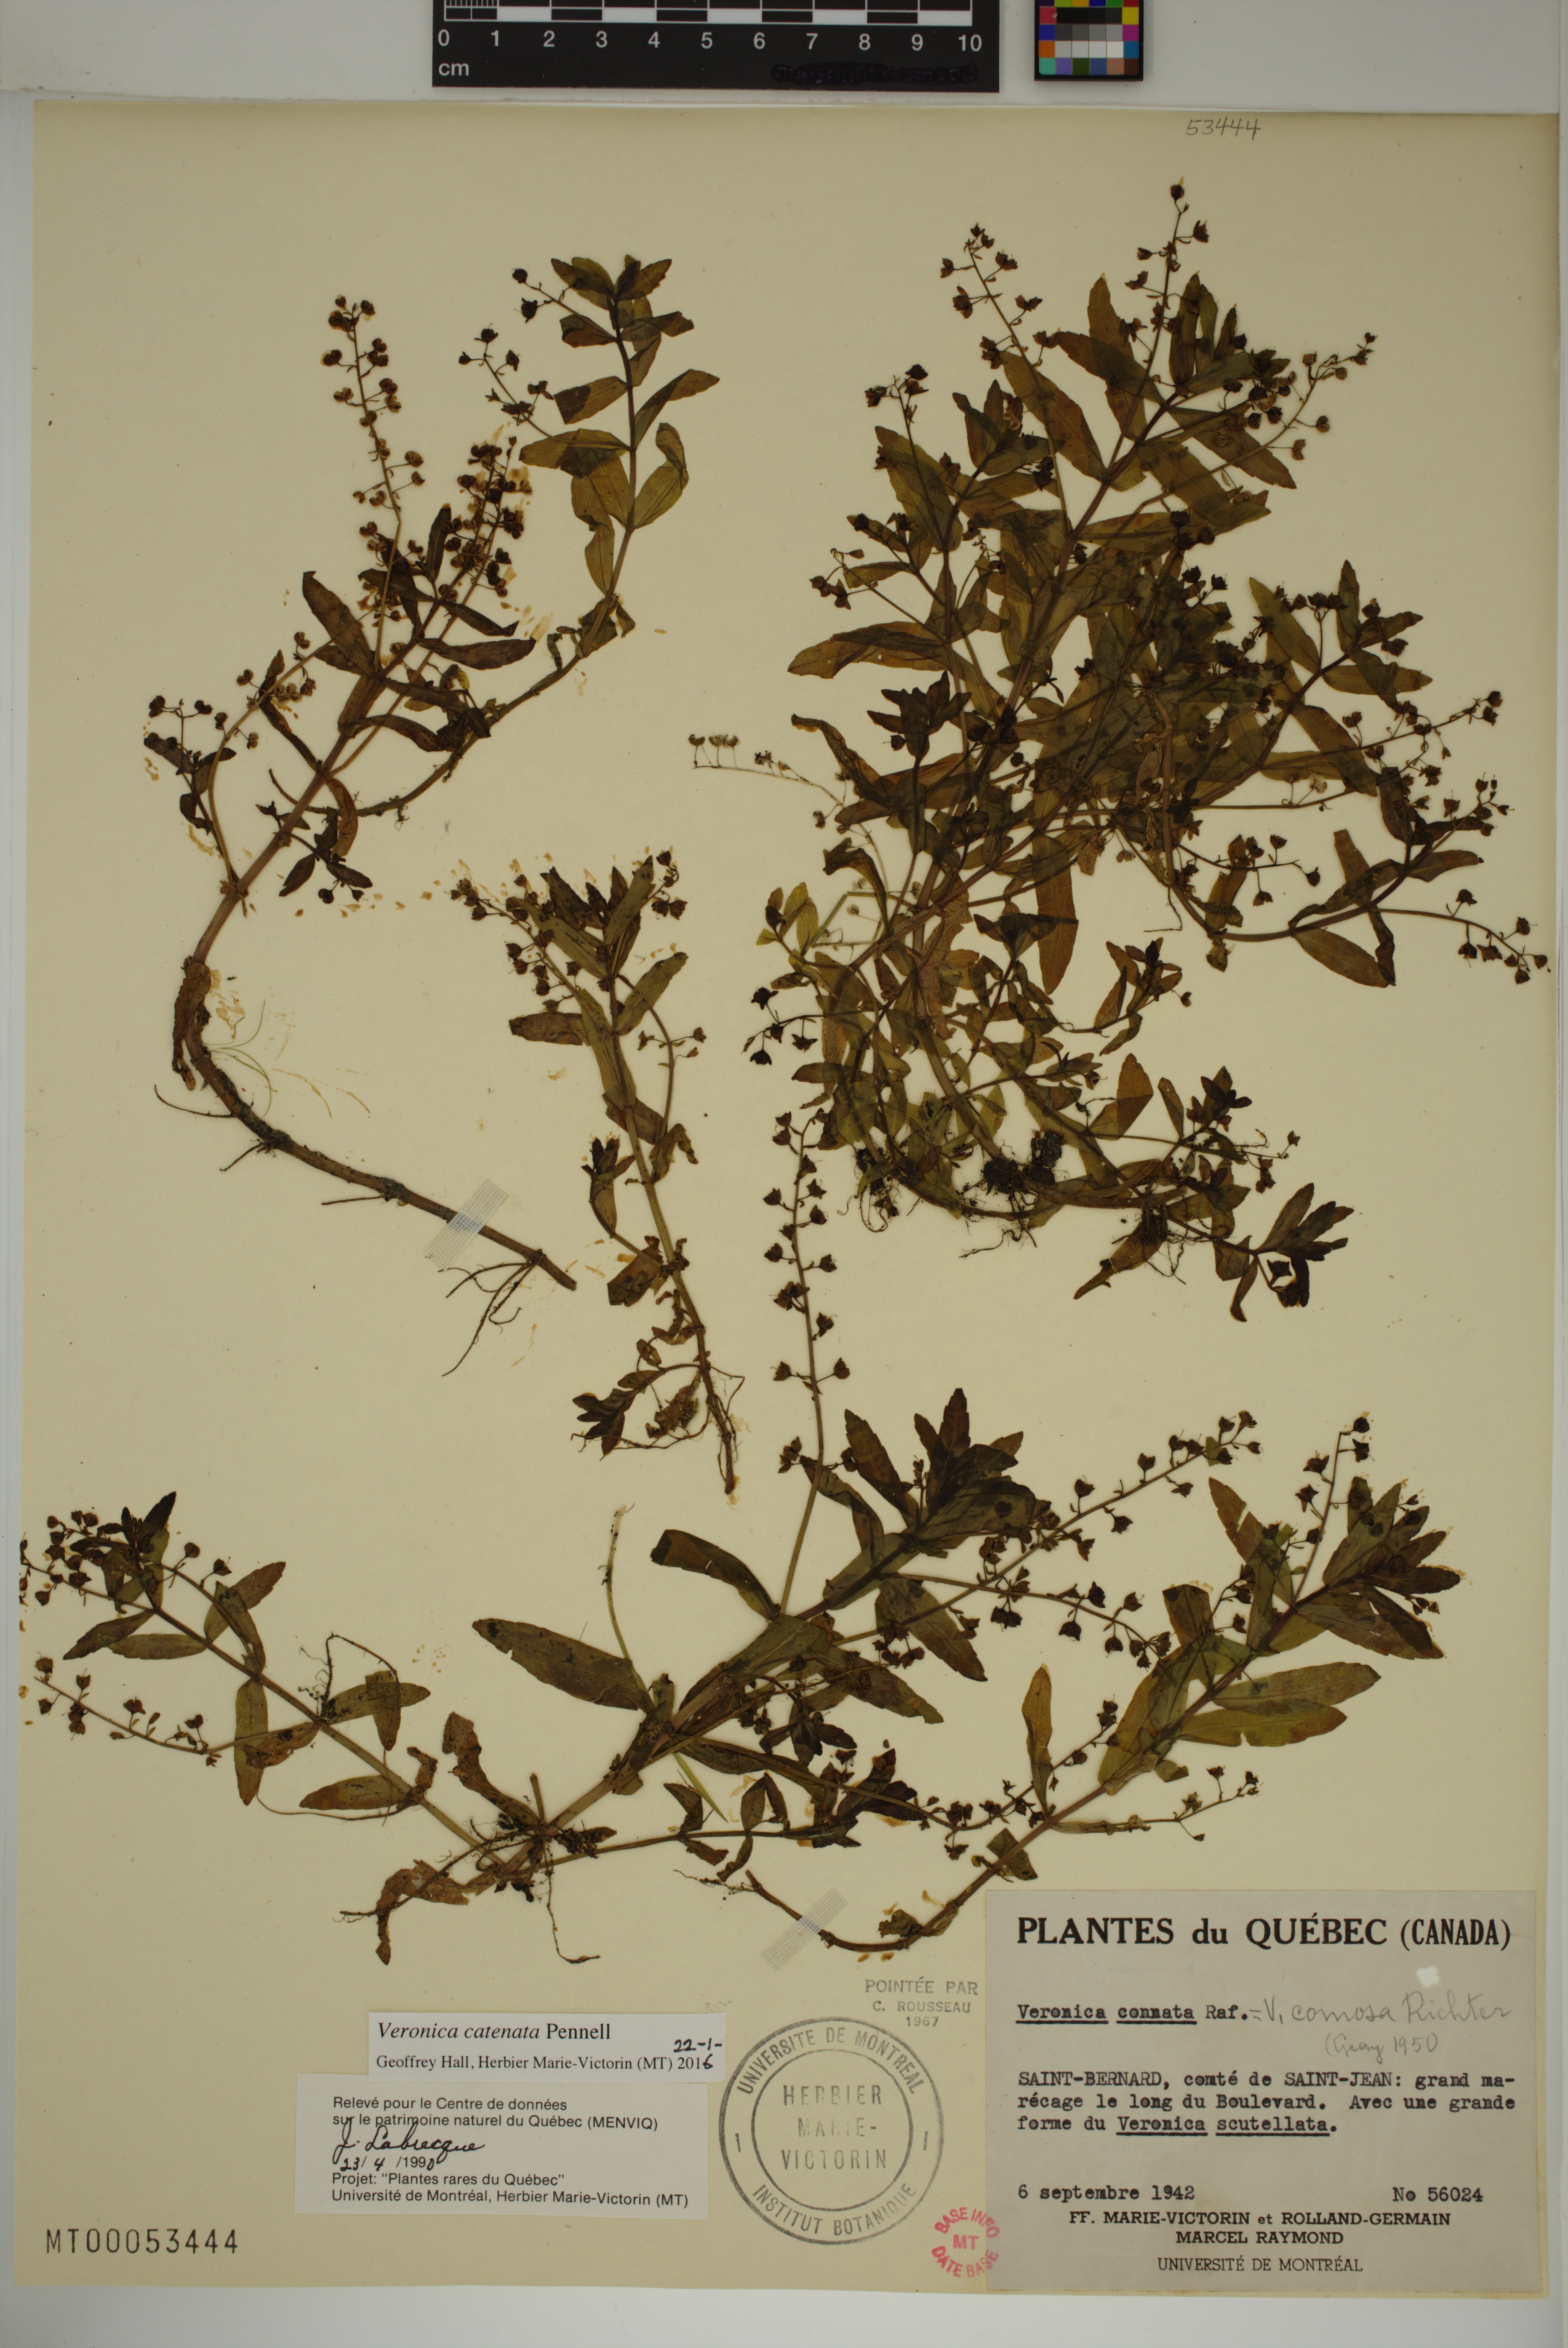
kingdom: Plantae
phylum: Tracheophyta
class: Magnoliopsida
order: Lamiales
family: Plantaginaceae
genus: Veronica
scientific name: Veronica catenata
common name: Pink water-speedwell
